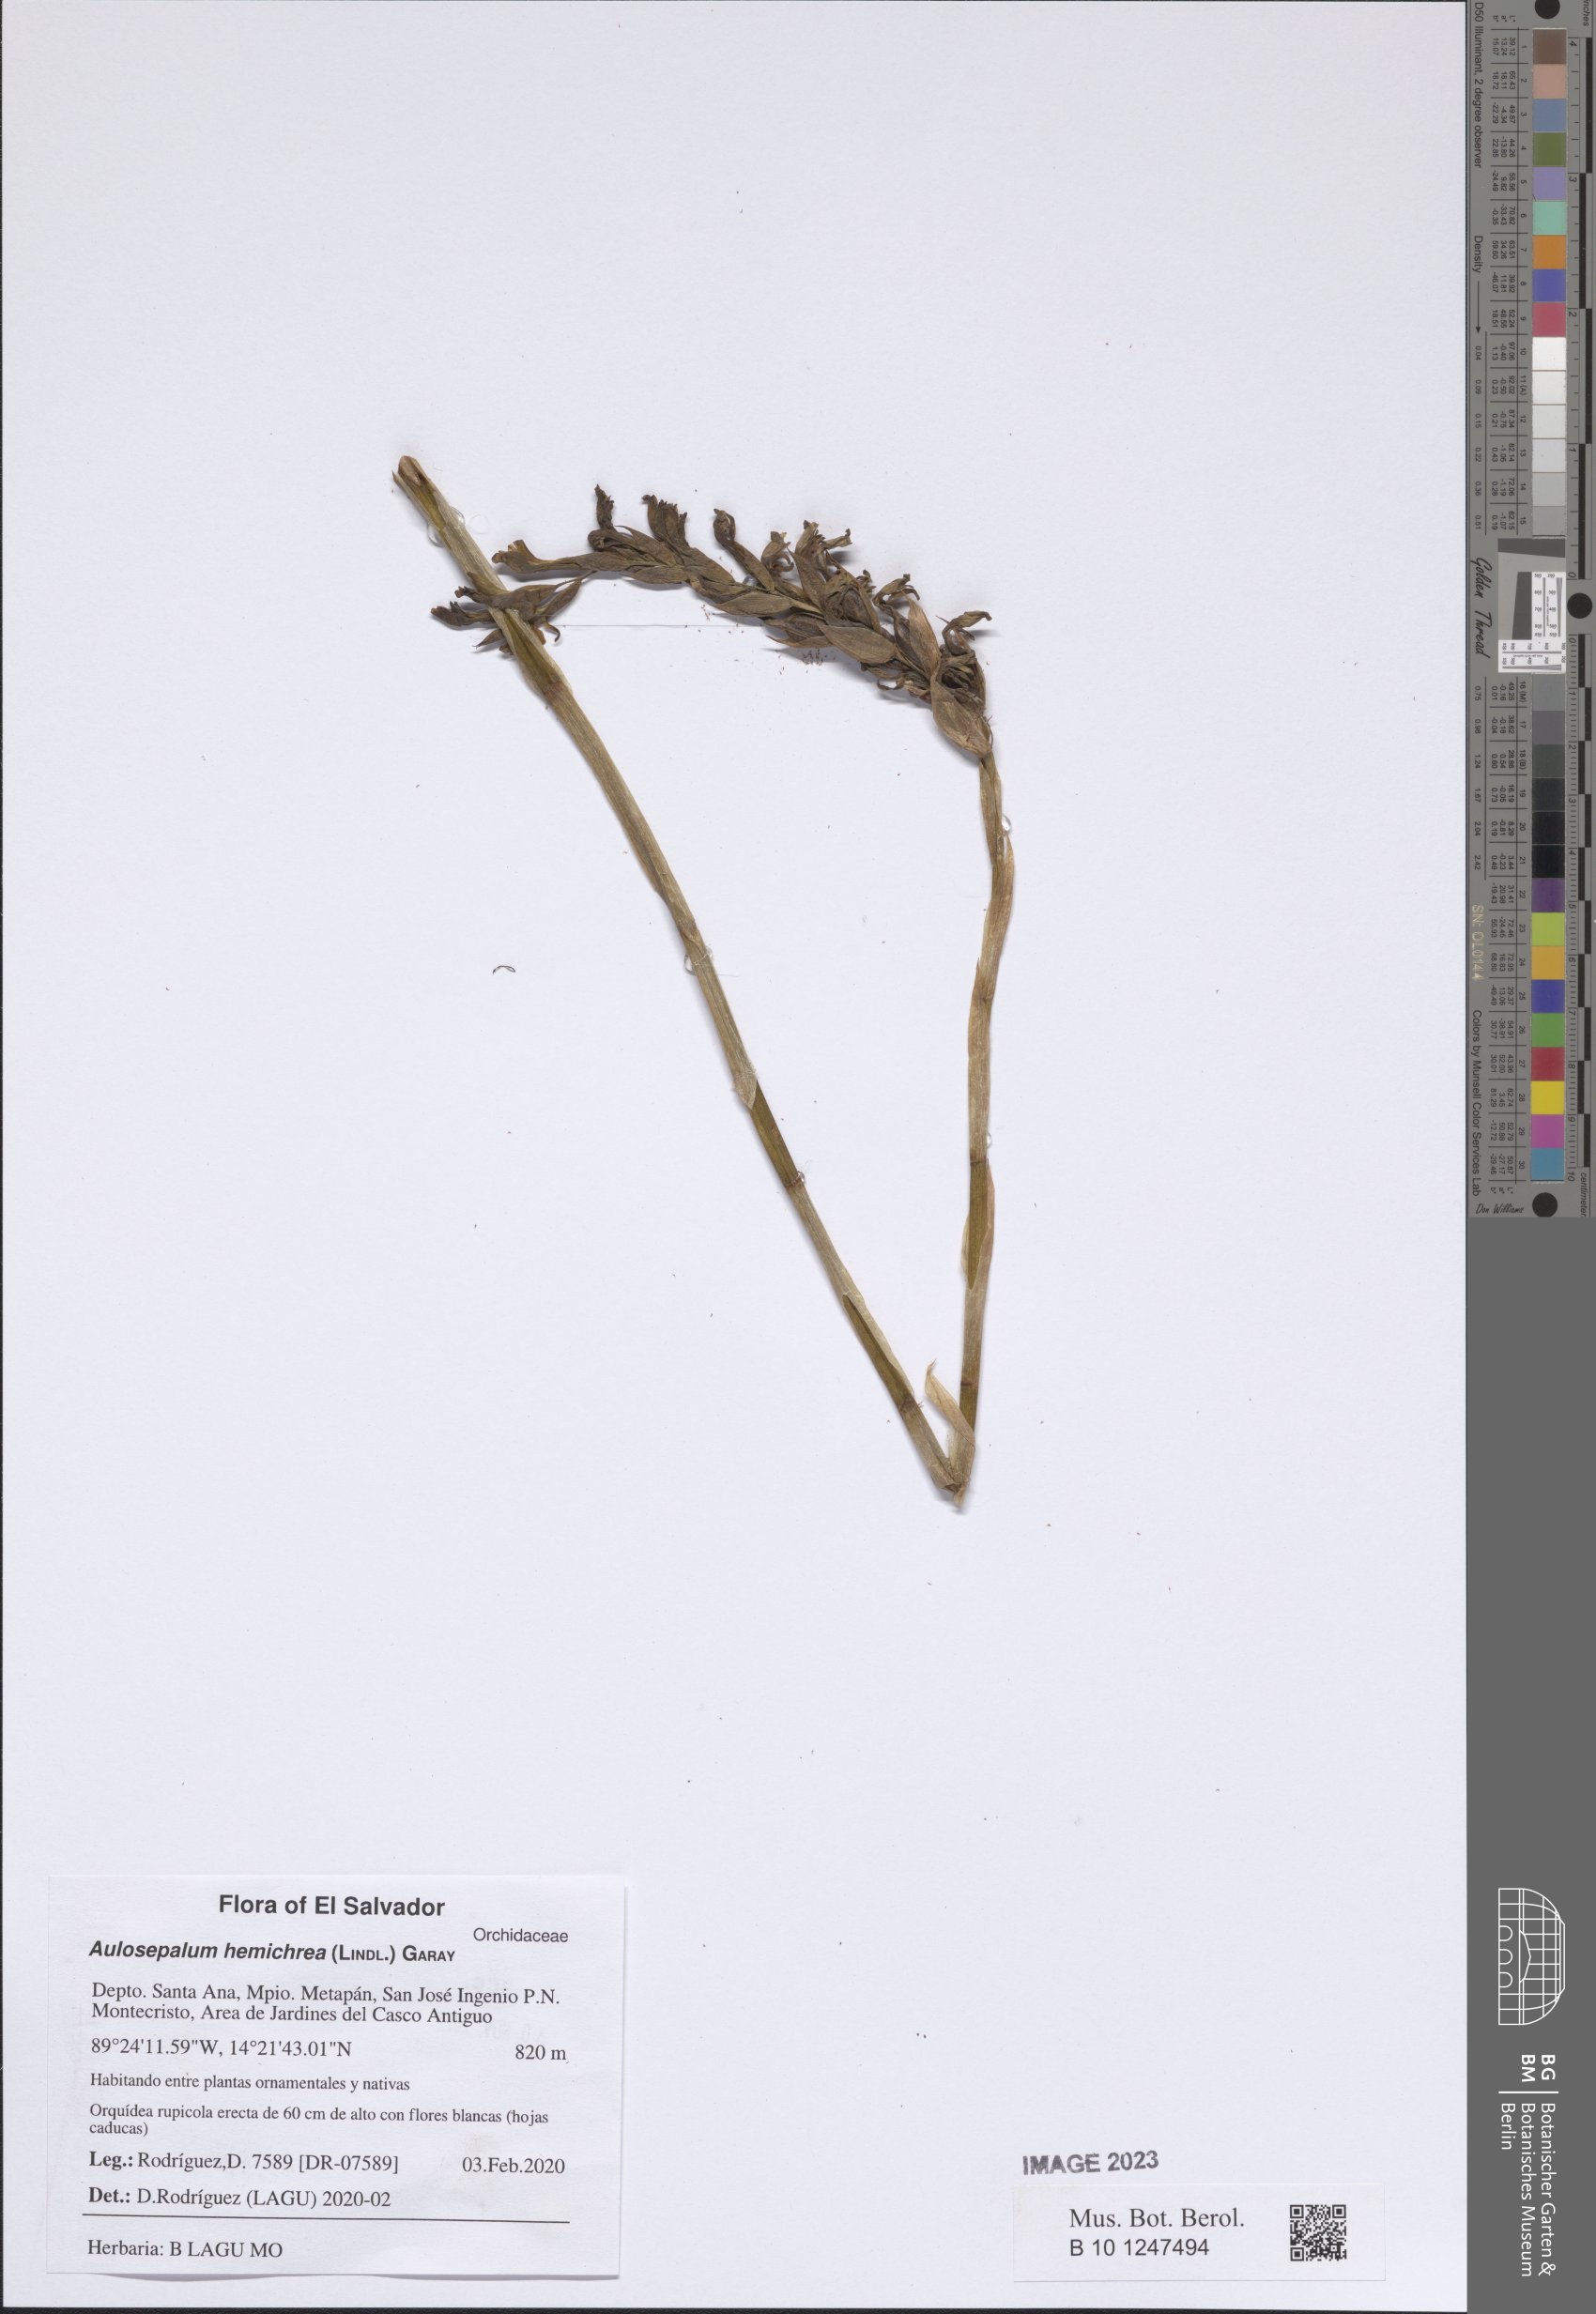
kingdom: Plantae
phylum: Tracheophyta
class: Liliopsida
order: Asparagales
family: Orchidaceae
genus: Aulosepalum
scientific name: Aulosepalum hemichrea
